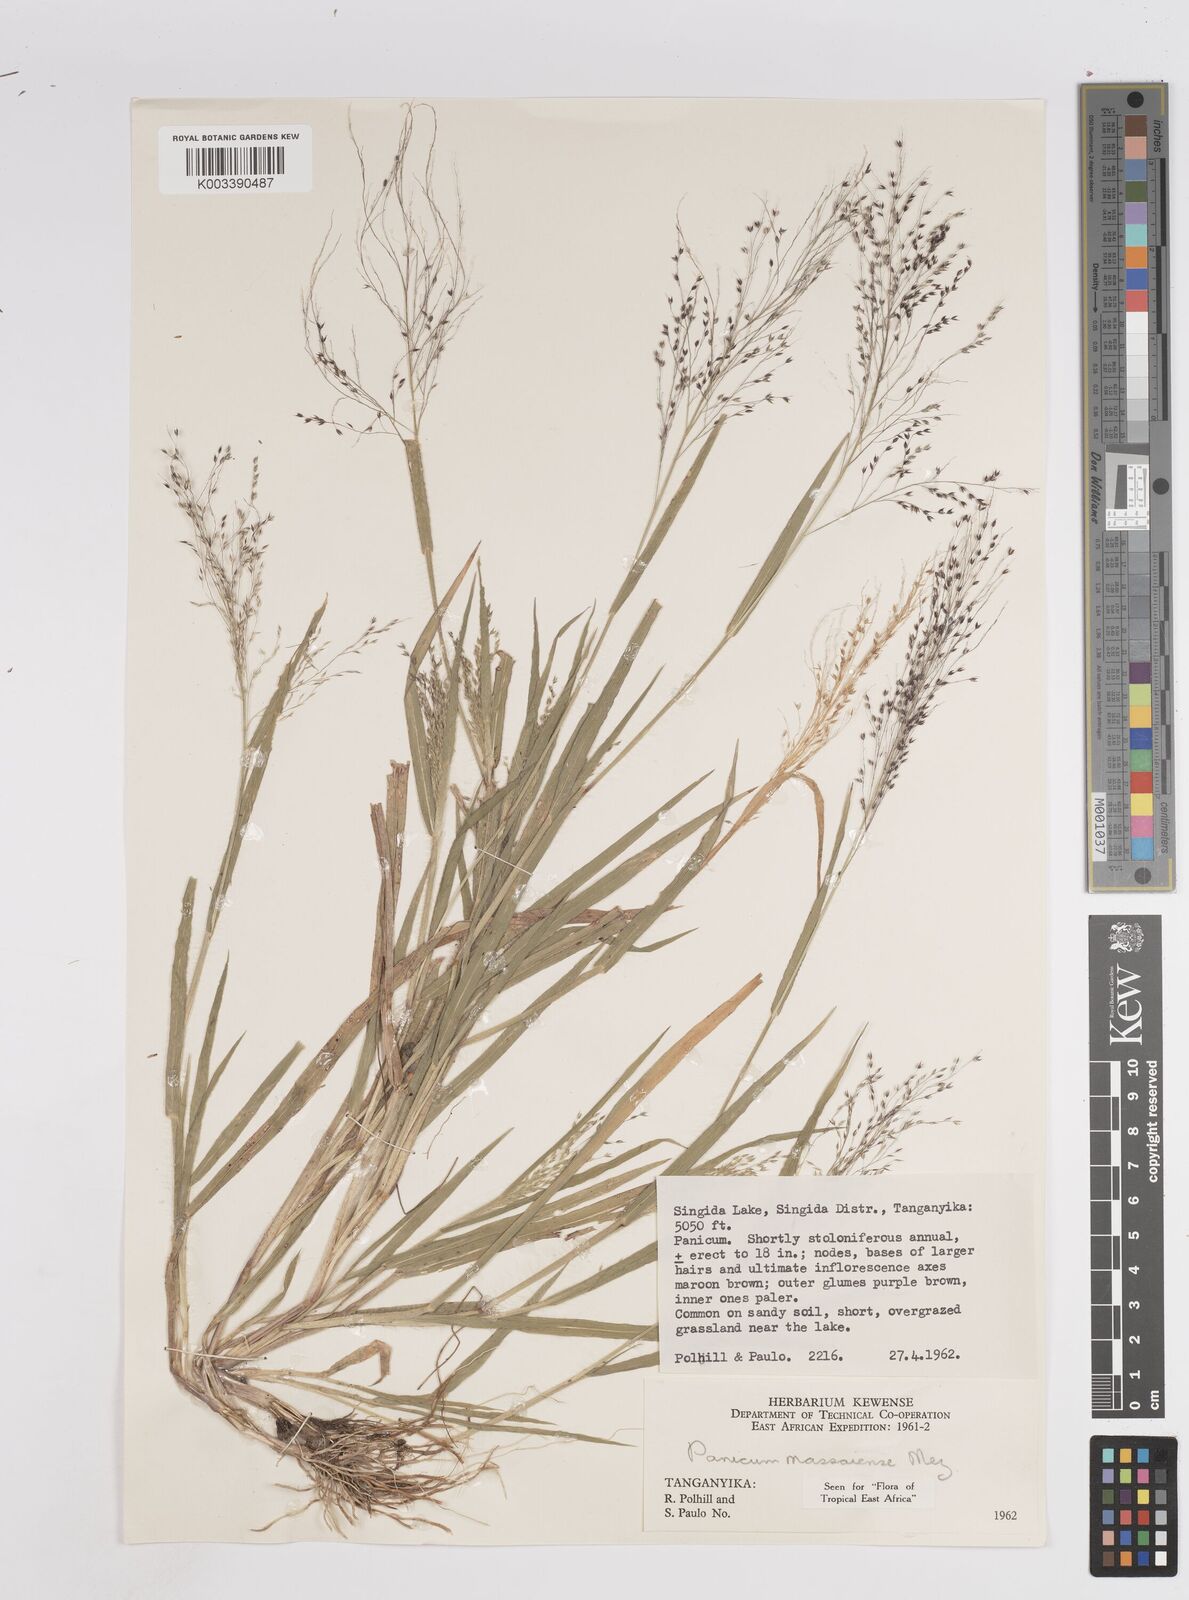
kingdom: Plantae
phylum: Tracheophyta
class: Liliopsida
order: Poales
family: Poaceae
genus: Panicum
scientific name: Panicum massaiense
